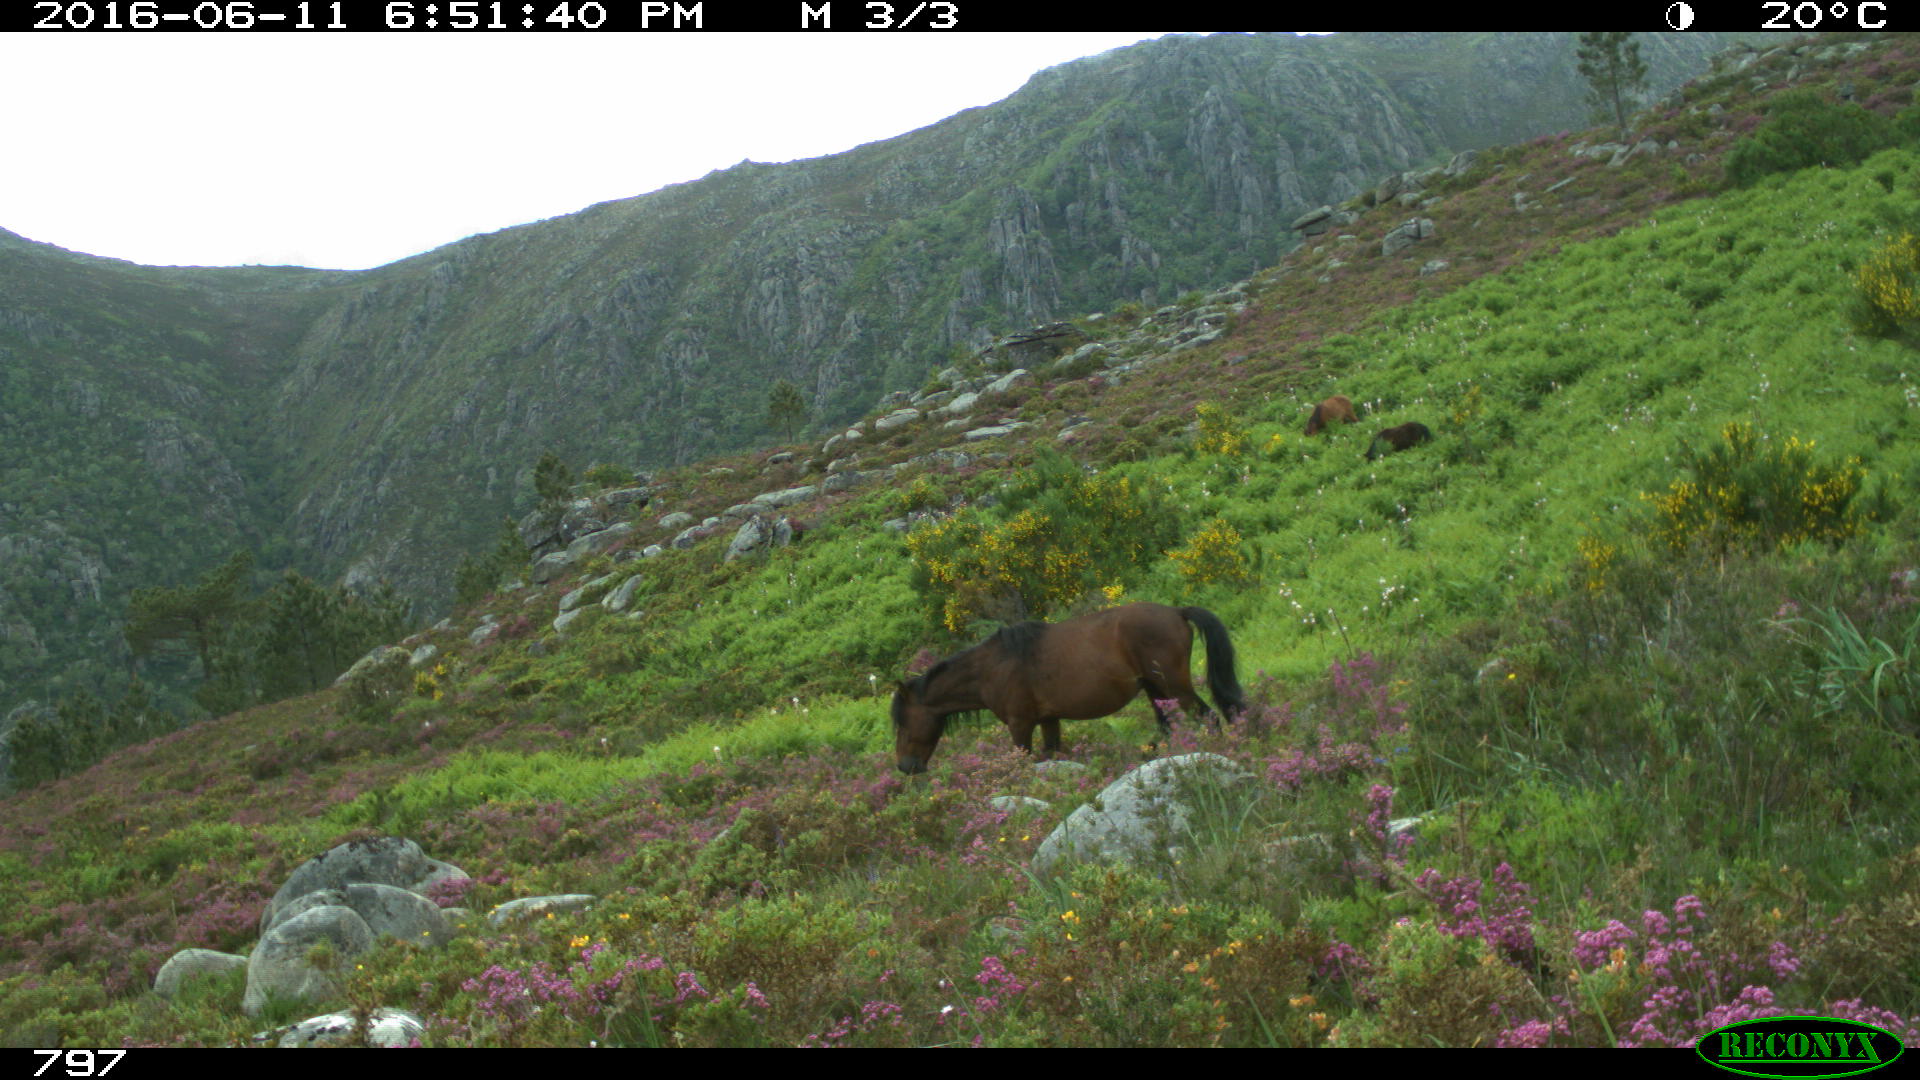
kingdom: Animalia
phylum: Chordata
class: Mammalia
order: Perissodactyla
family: Equidae
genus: Equus
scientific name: Equus caballus
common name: Horse
